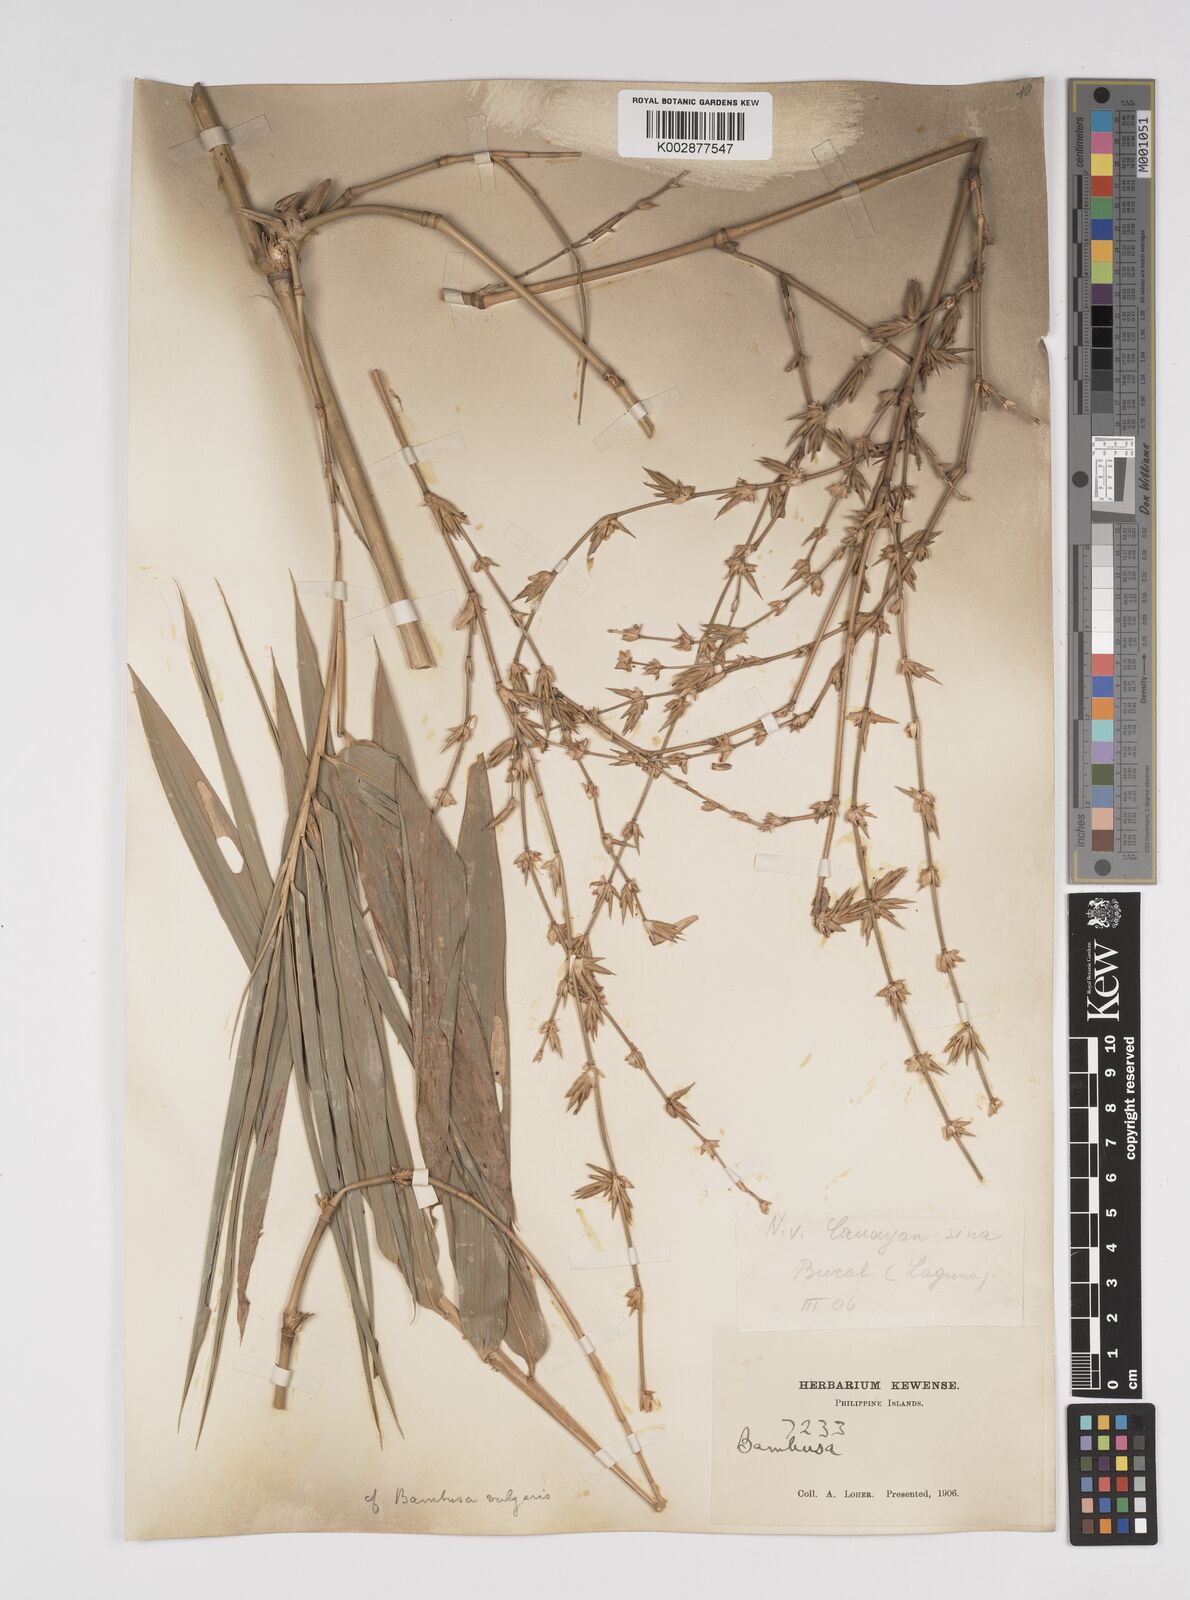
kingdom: Plantae
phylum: Tracheophyta
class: Liliopsida
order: Poales
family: Poaceae
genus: Bambusa
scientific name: Bambusa vulgaris
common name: Common bamboo
